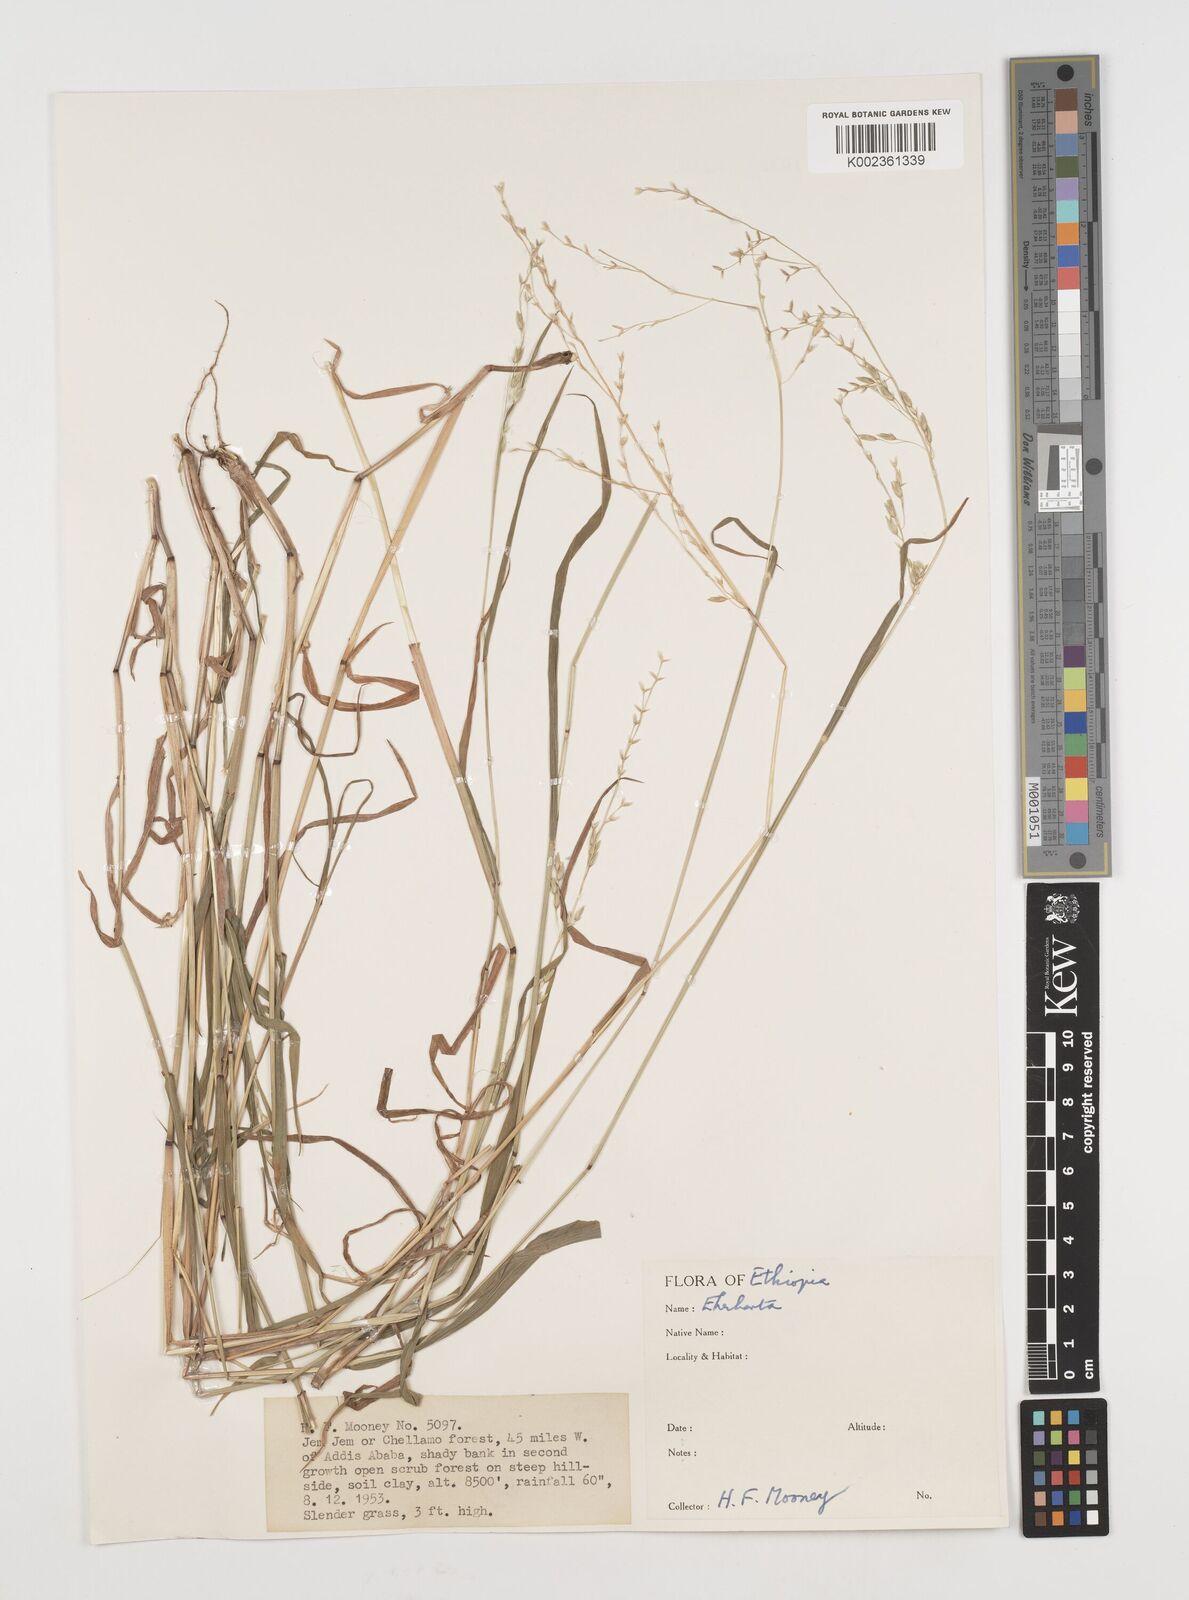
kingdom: Plantae
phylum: Tracheophyta
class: Liliopsida
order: Poales
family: Poaceae
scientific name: Poaceae
